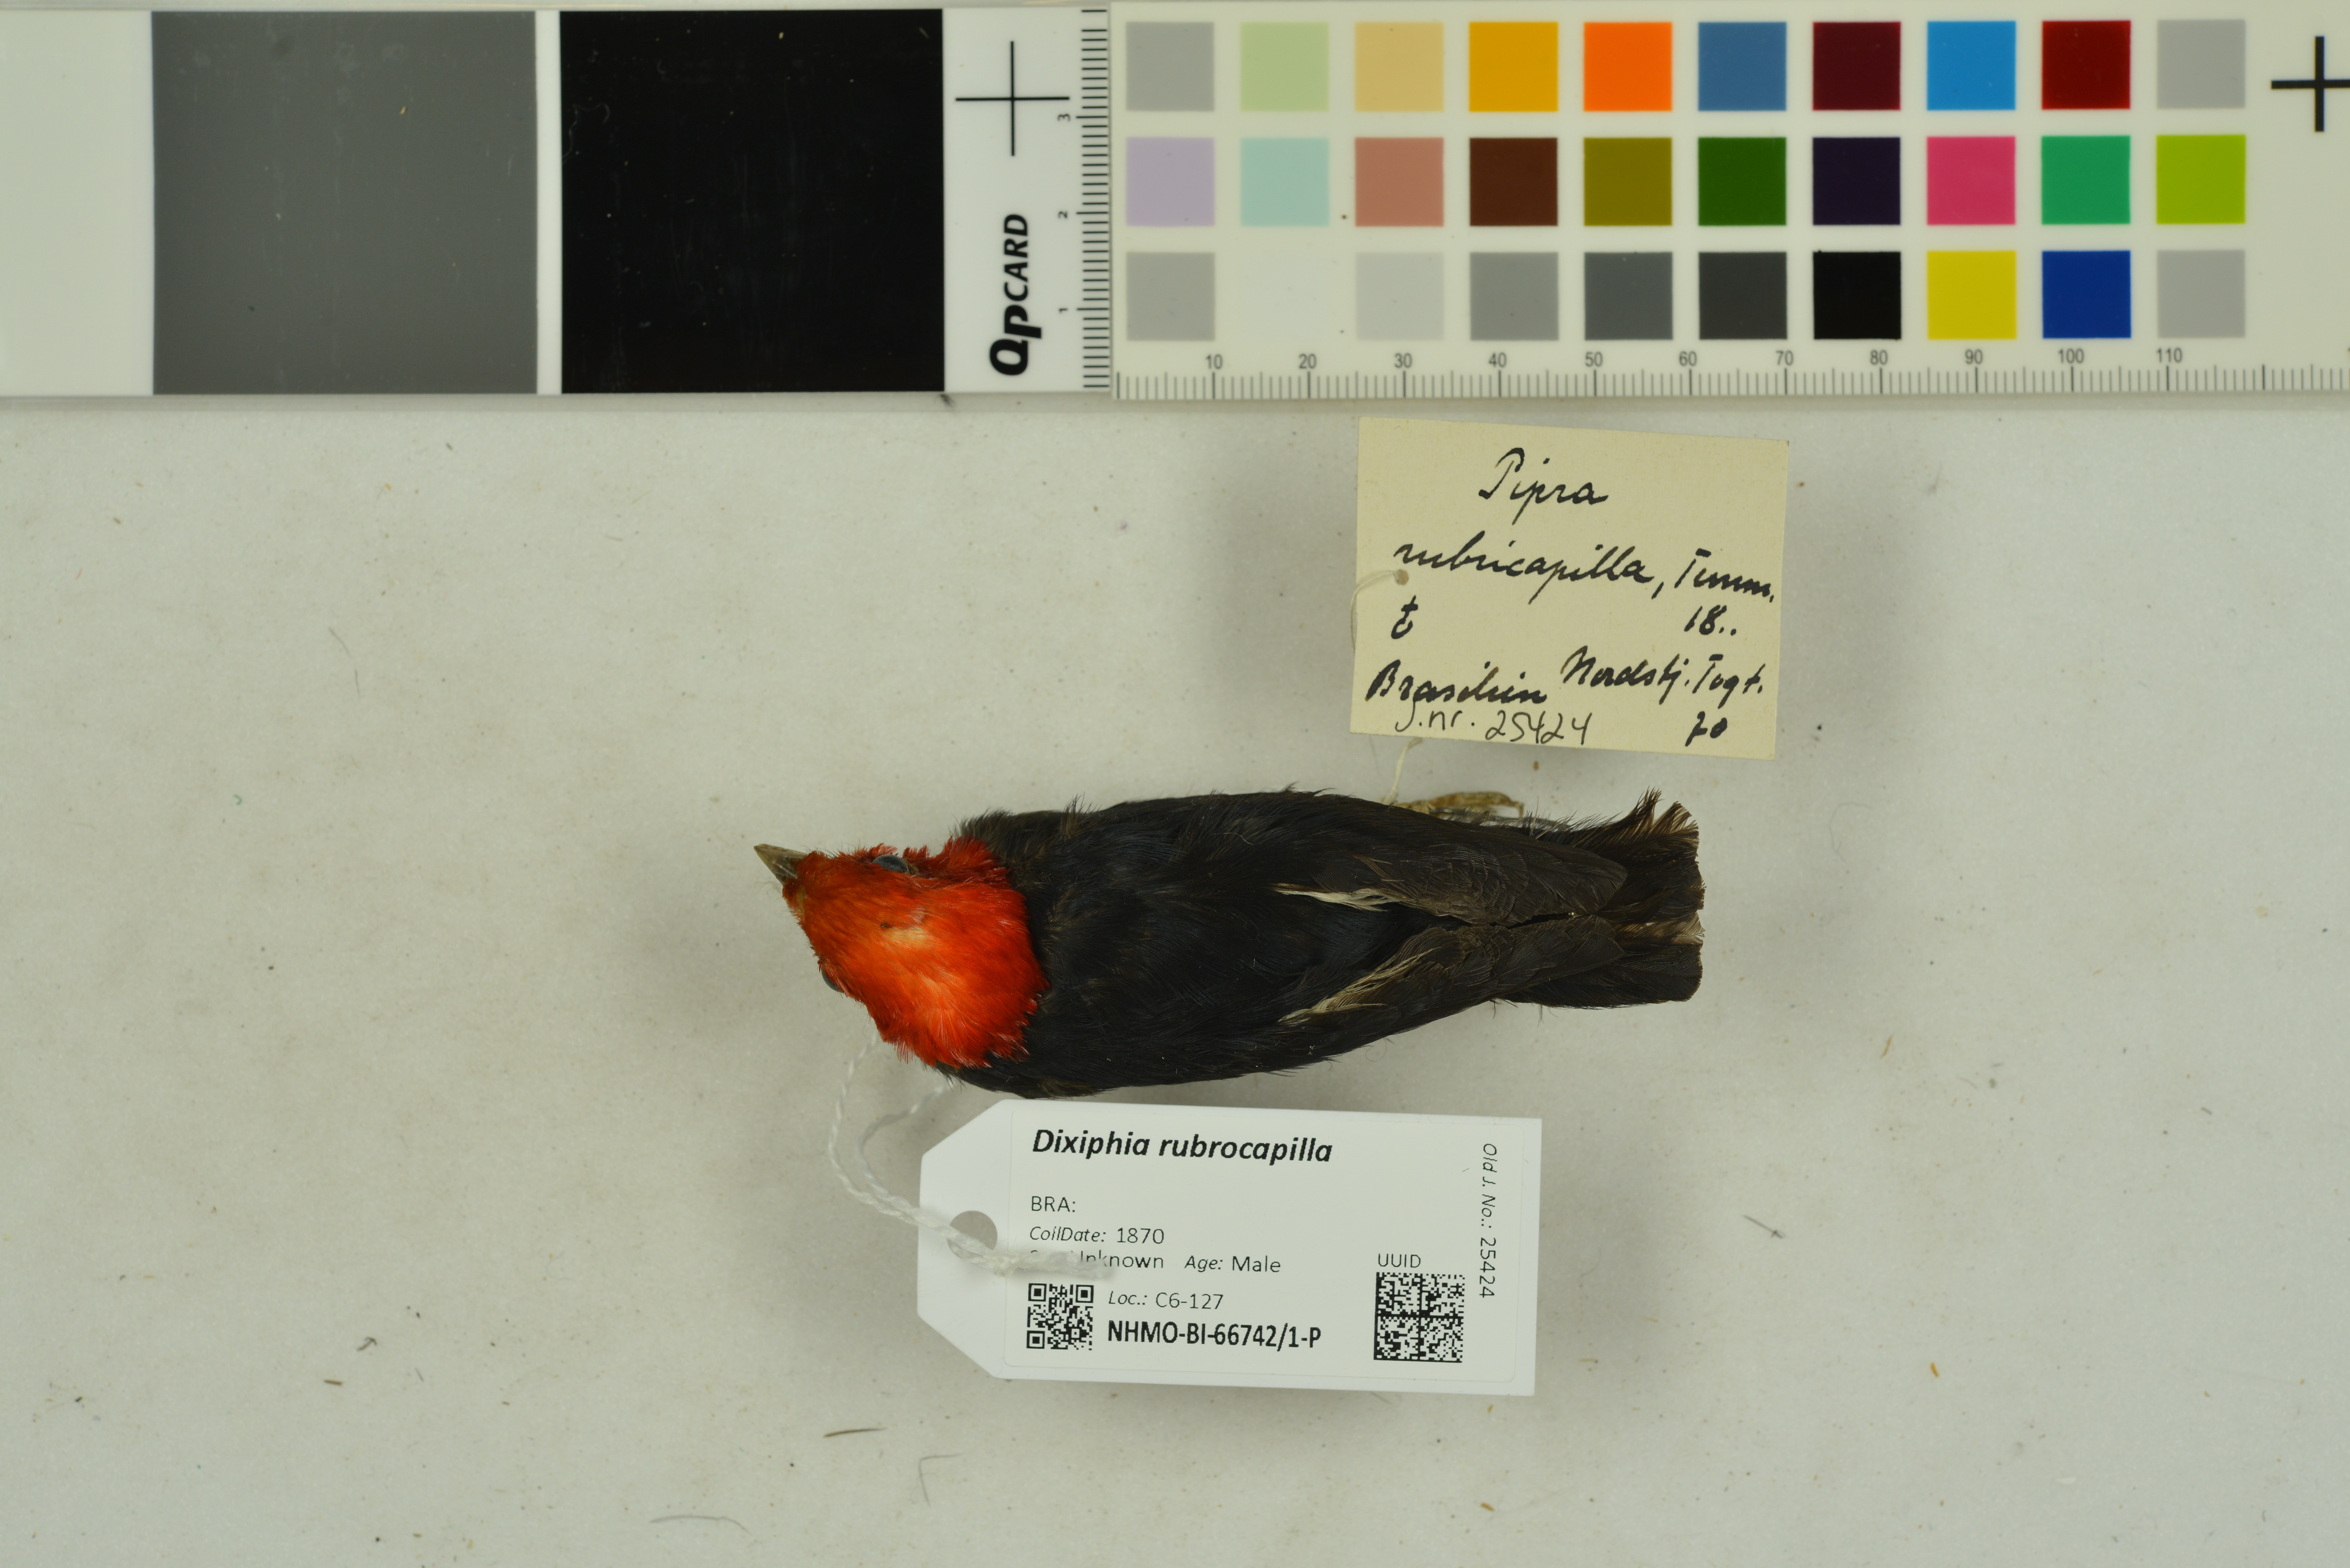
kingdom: Animalia
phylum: Chordata
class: Aves
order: Passeriformes
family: Pipridae
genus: Pipra
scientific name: Pipra rubrocapilla
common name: Red-headed manakin
